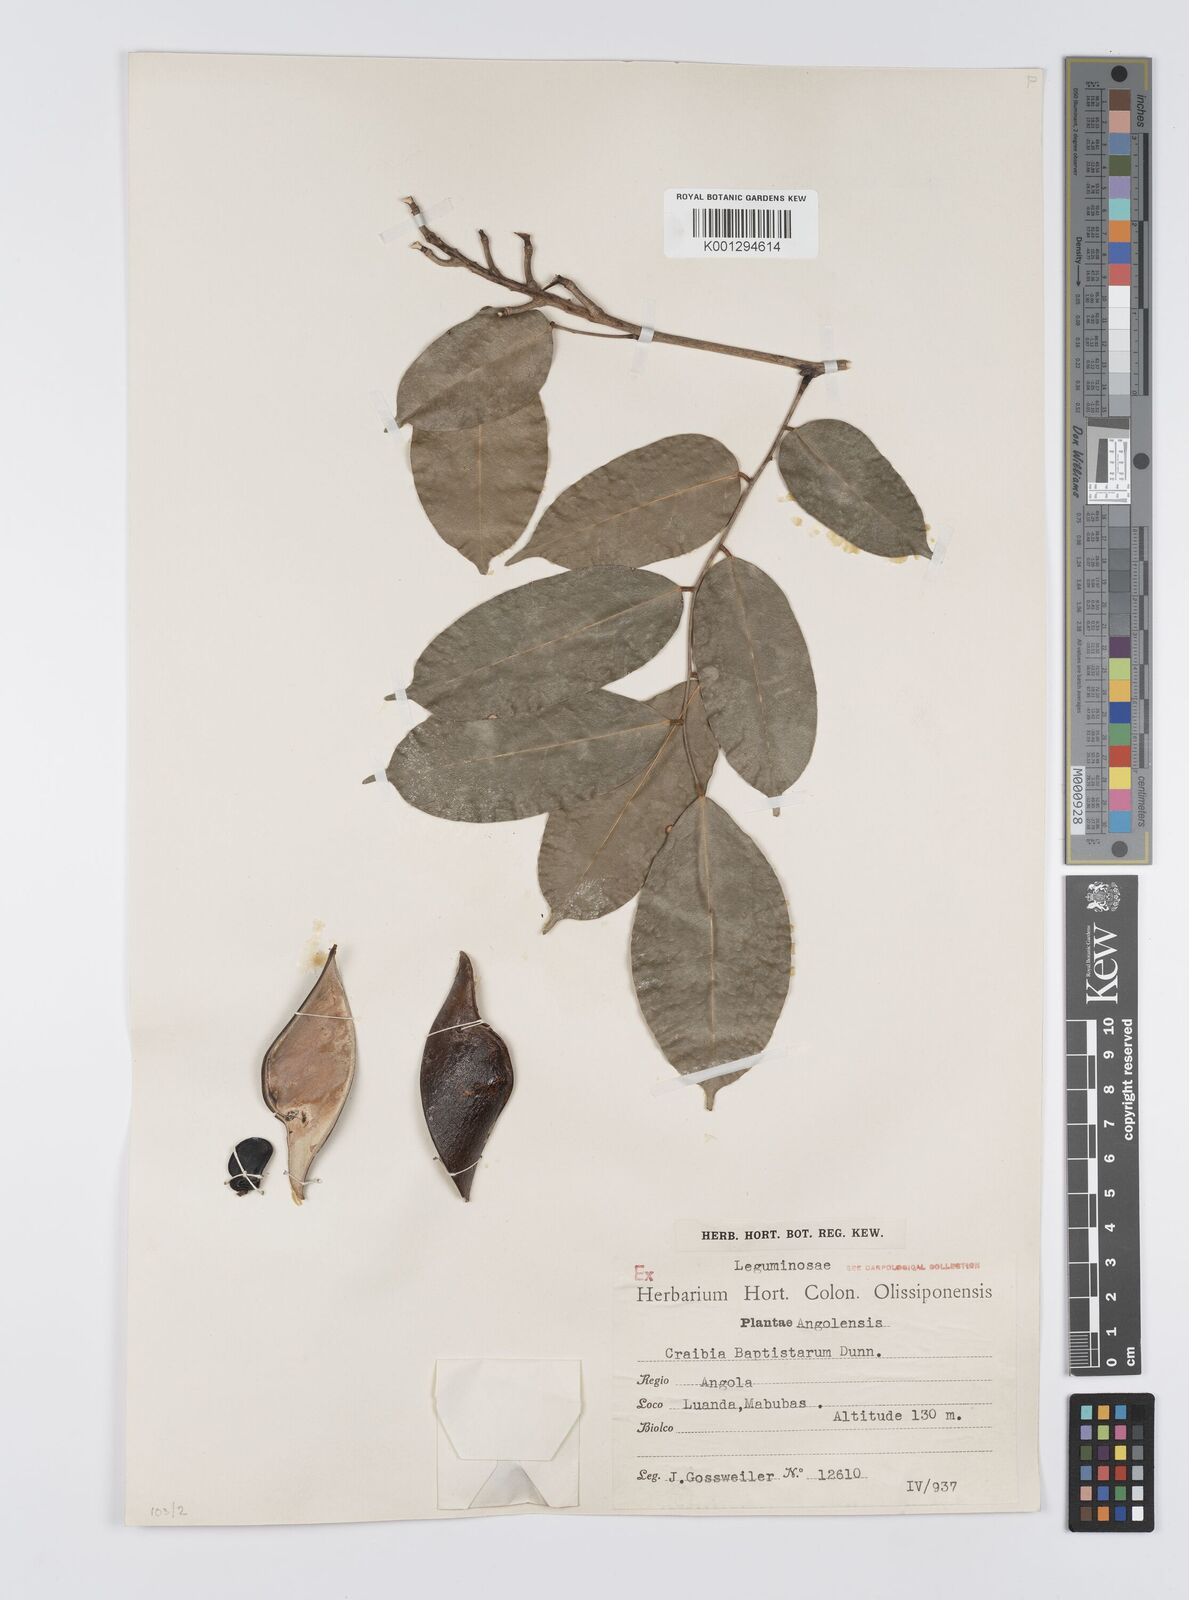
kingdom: Plantae
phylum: Tracheophyta
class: Magnoliopsida
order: Fabales
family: Fabaceae
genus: Craibia
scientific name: Craibia brevicaudata
